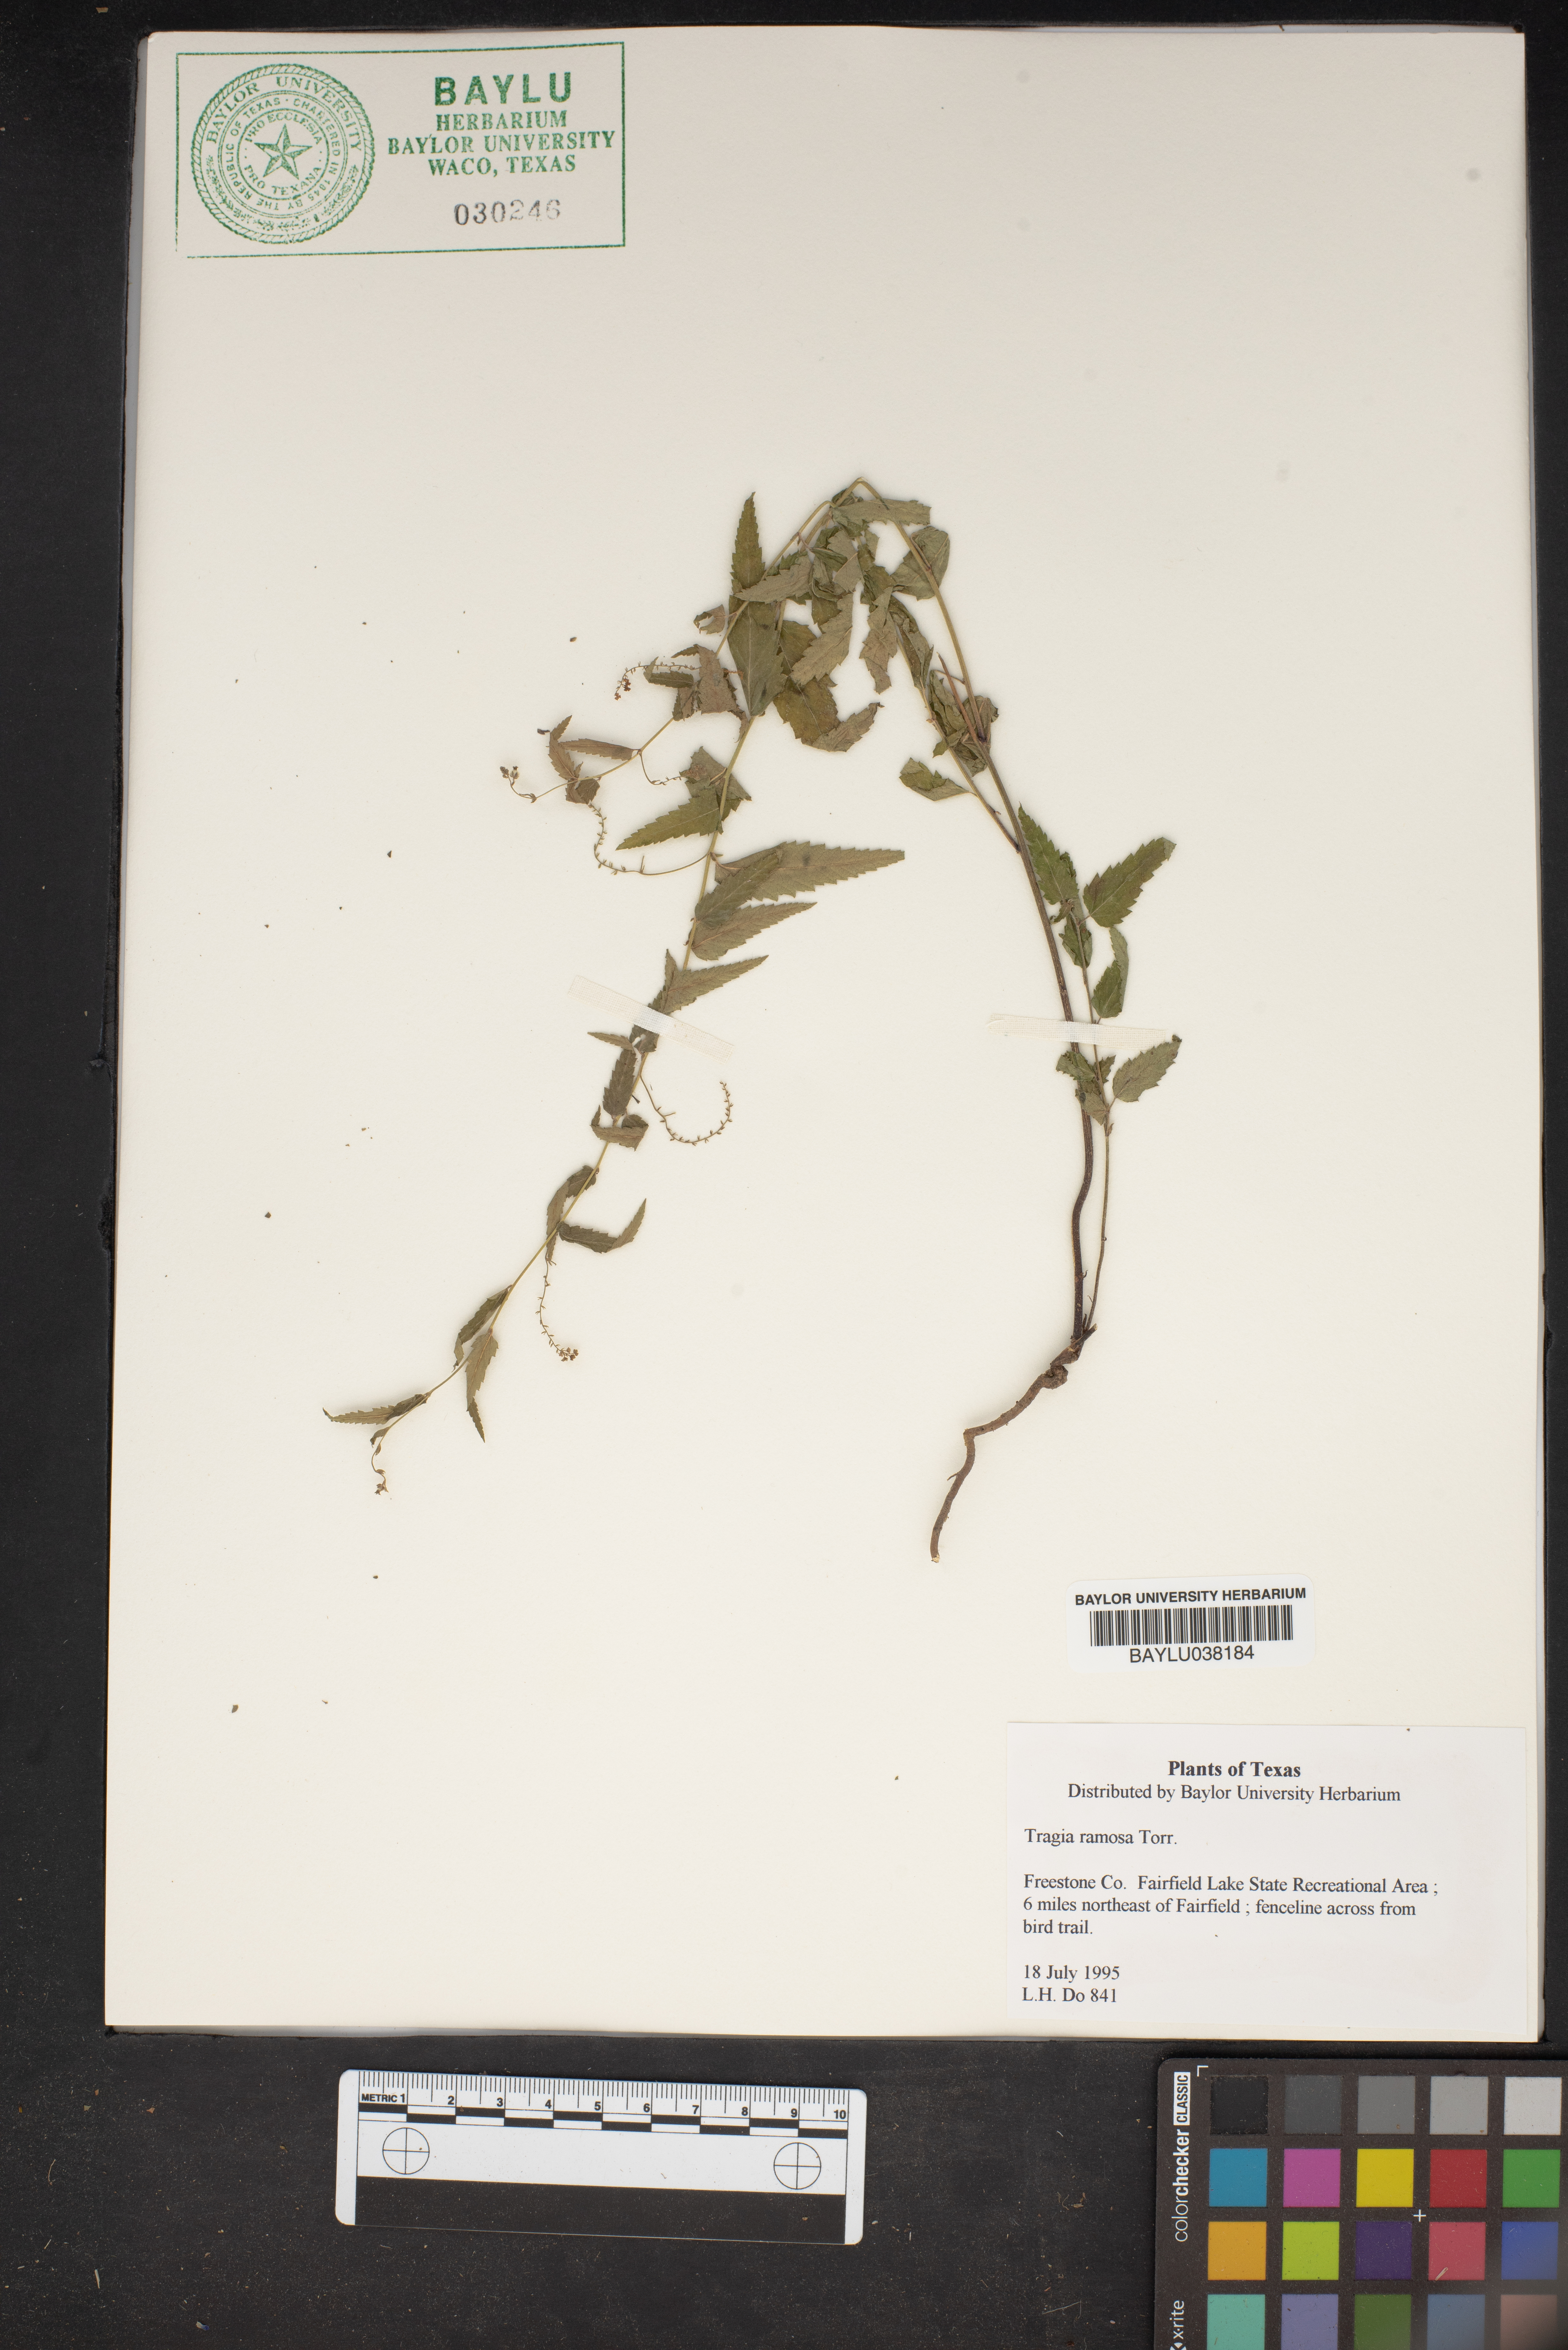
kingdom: Plantae
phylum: Tracheophyta
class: Magnoliopsida
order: Malpighiales
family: Euphorbiaceae
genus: Tragia
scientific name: Tragia ramosa
